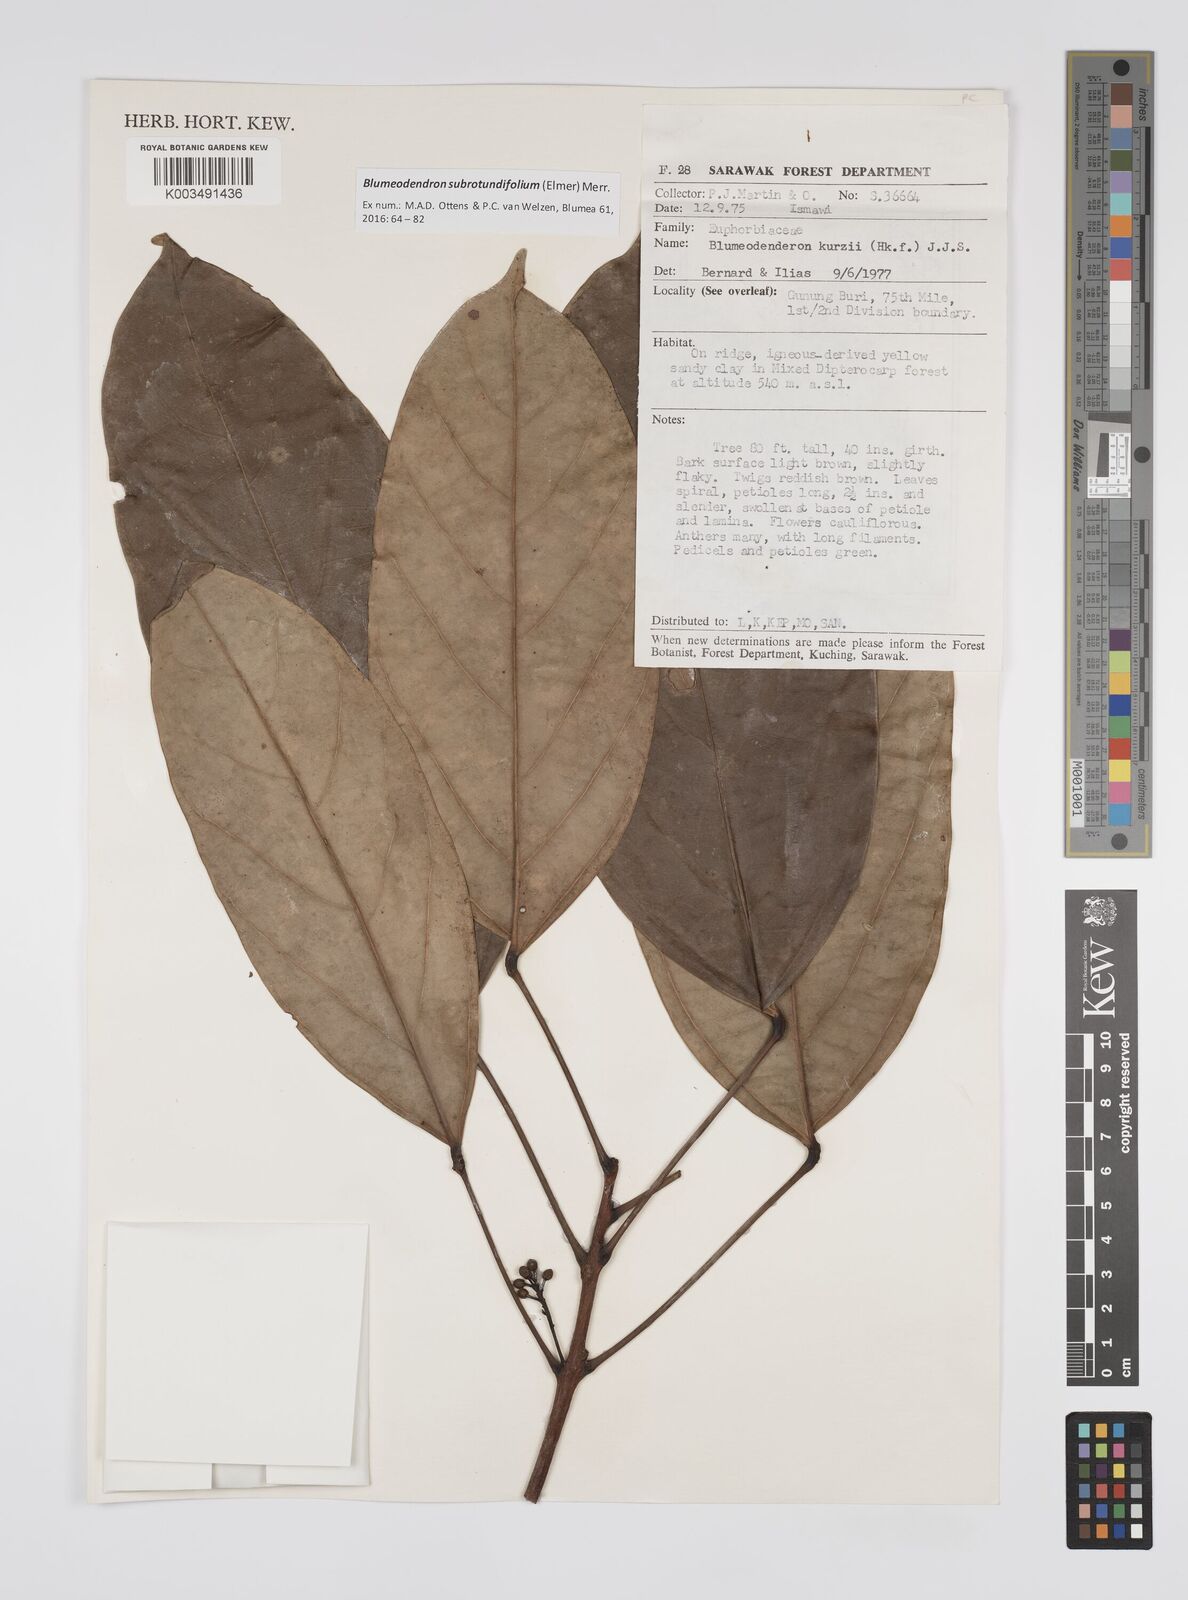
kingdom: Plantae
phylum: Tracheophyta
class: Magnoliopsida
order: Malpighiales
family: Euphorbiaceae
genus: Blumeodendron
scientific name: Blumeodendron subrotundifolium
